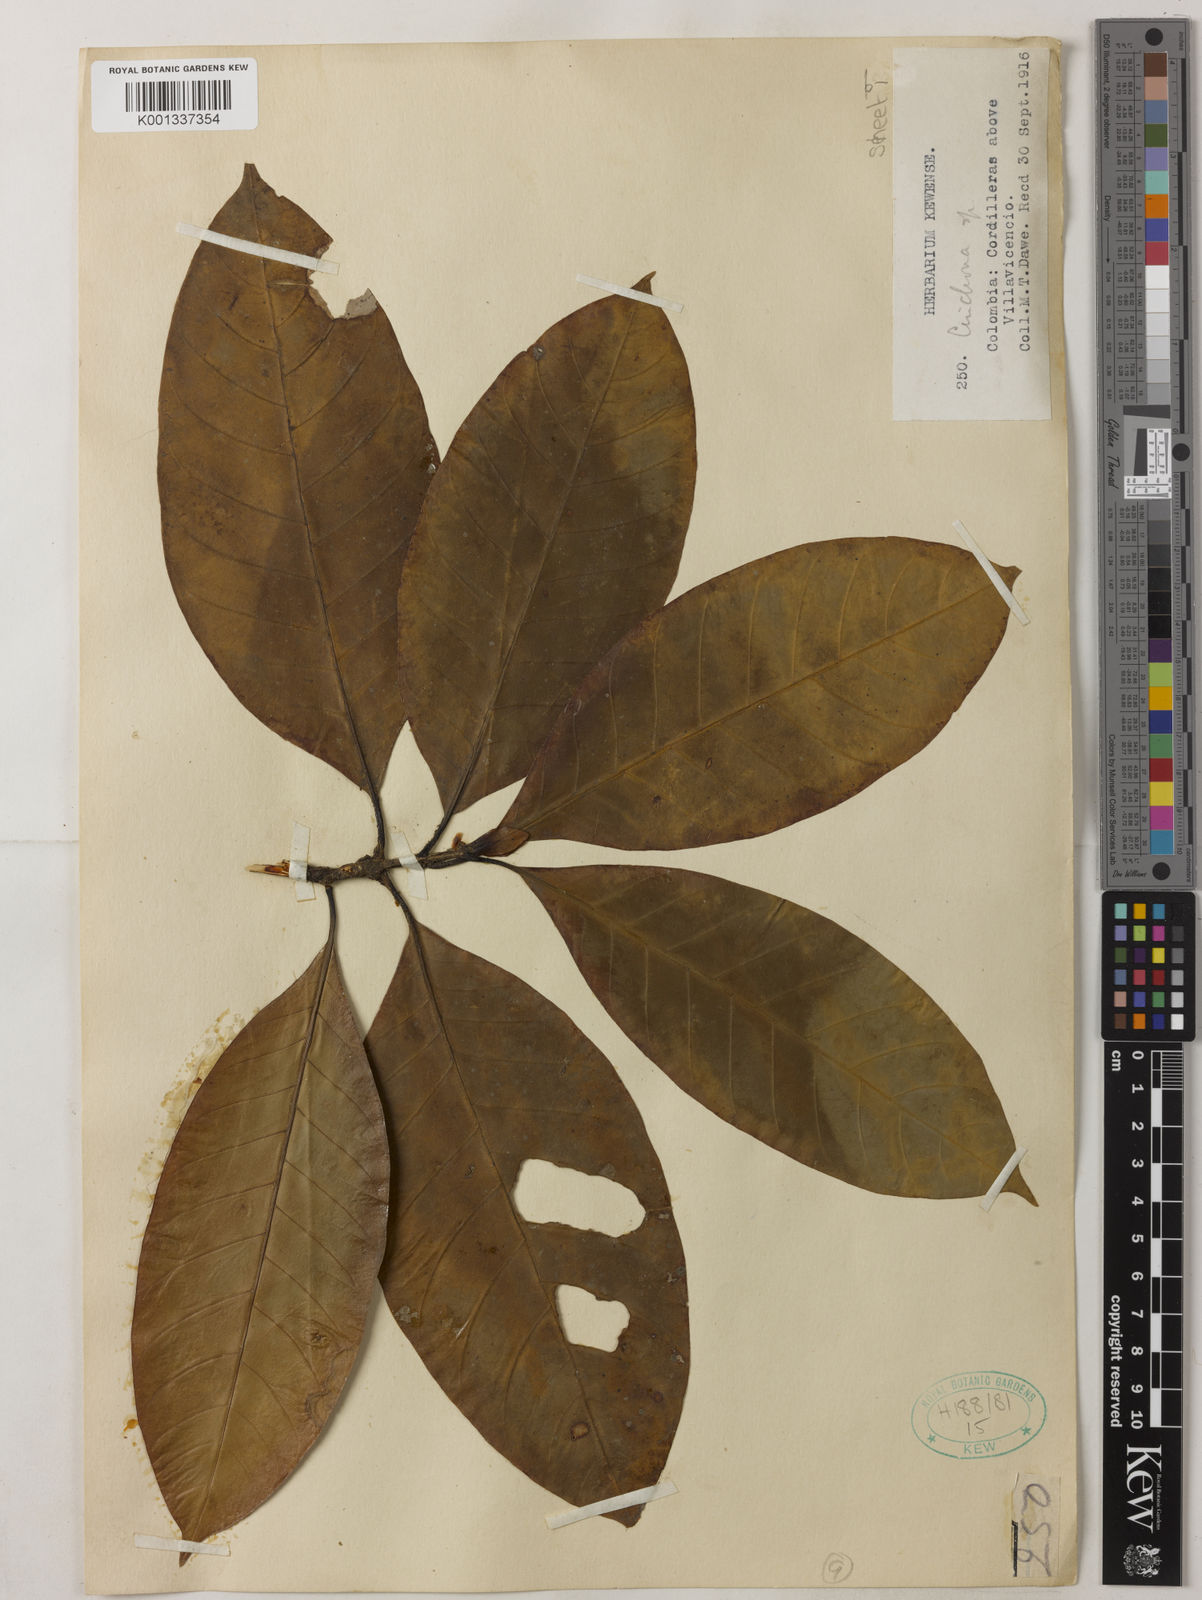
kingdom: Plantae
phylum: Tracheophyta
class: Magnoliopsida
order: Gentianales
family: Rubiaceae
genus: Cinchona
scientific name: Cinchona
